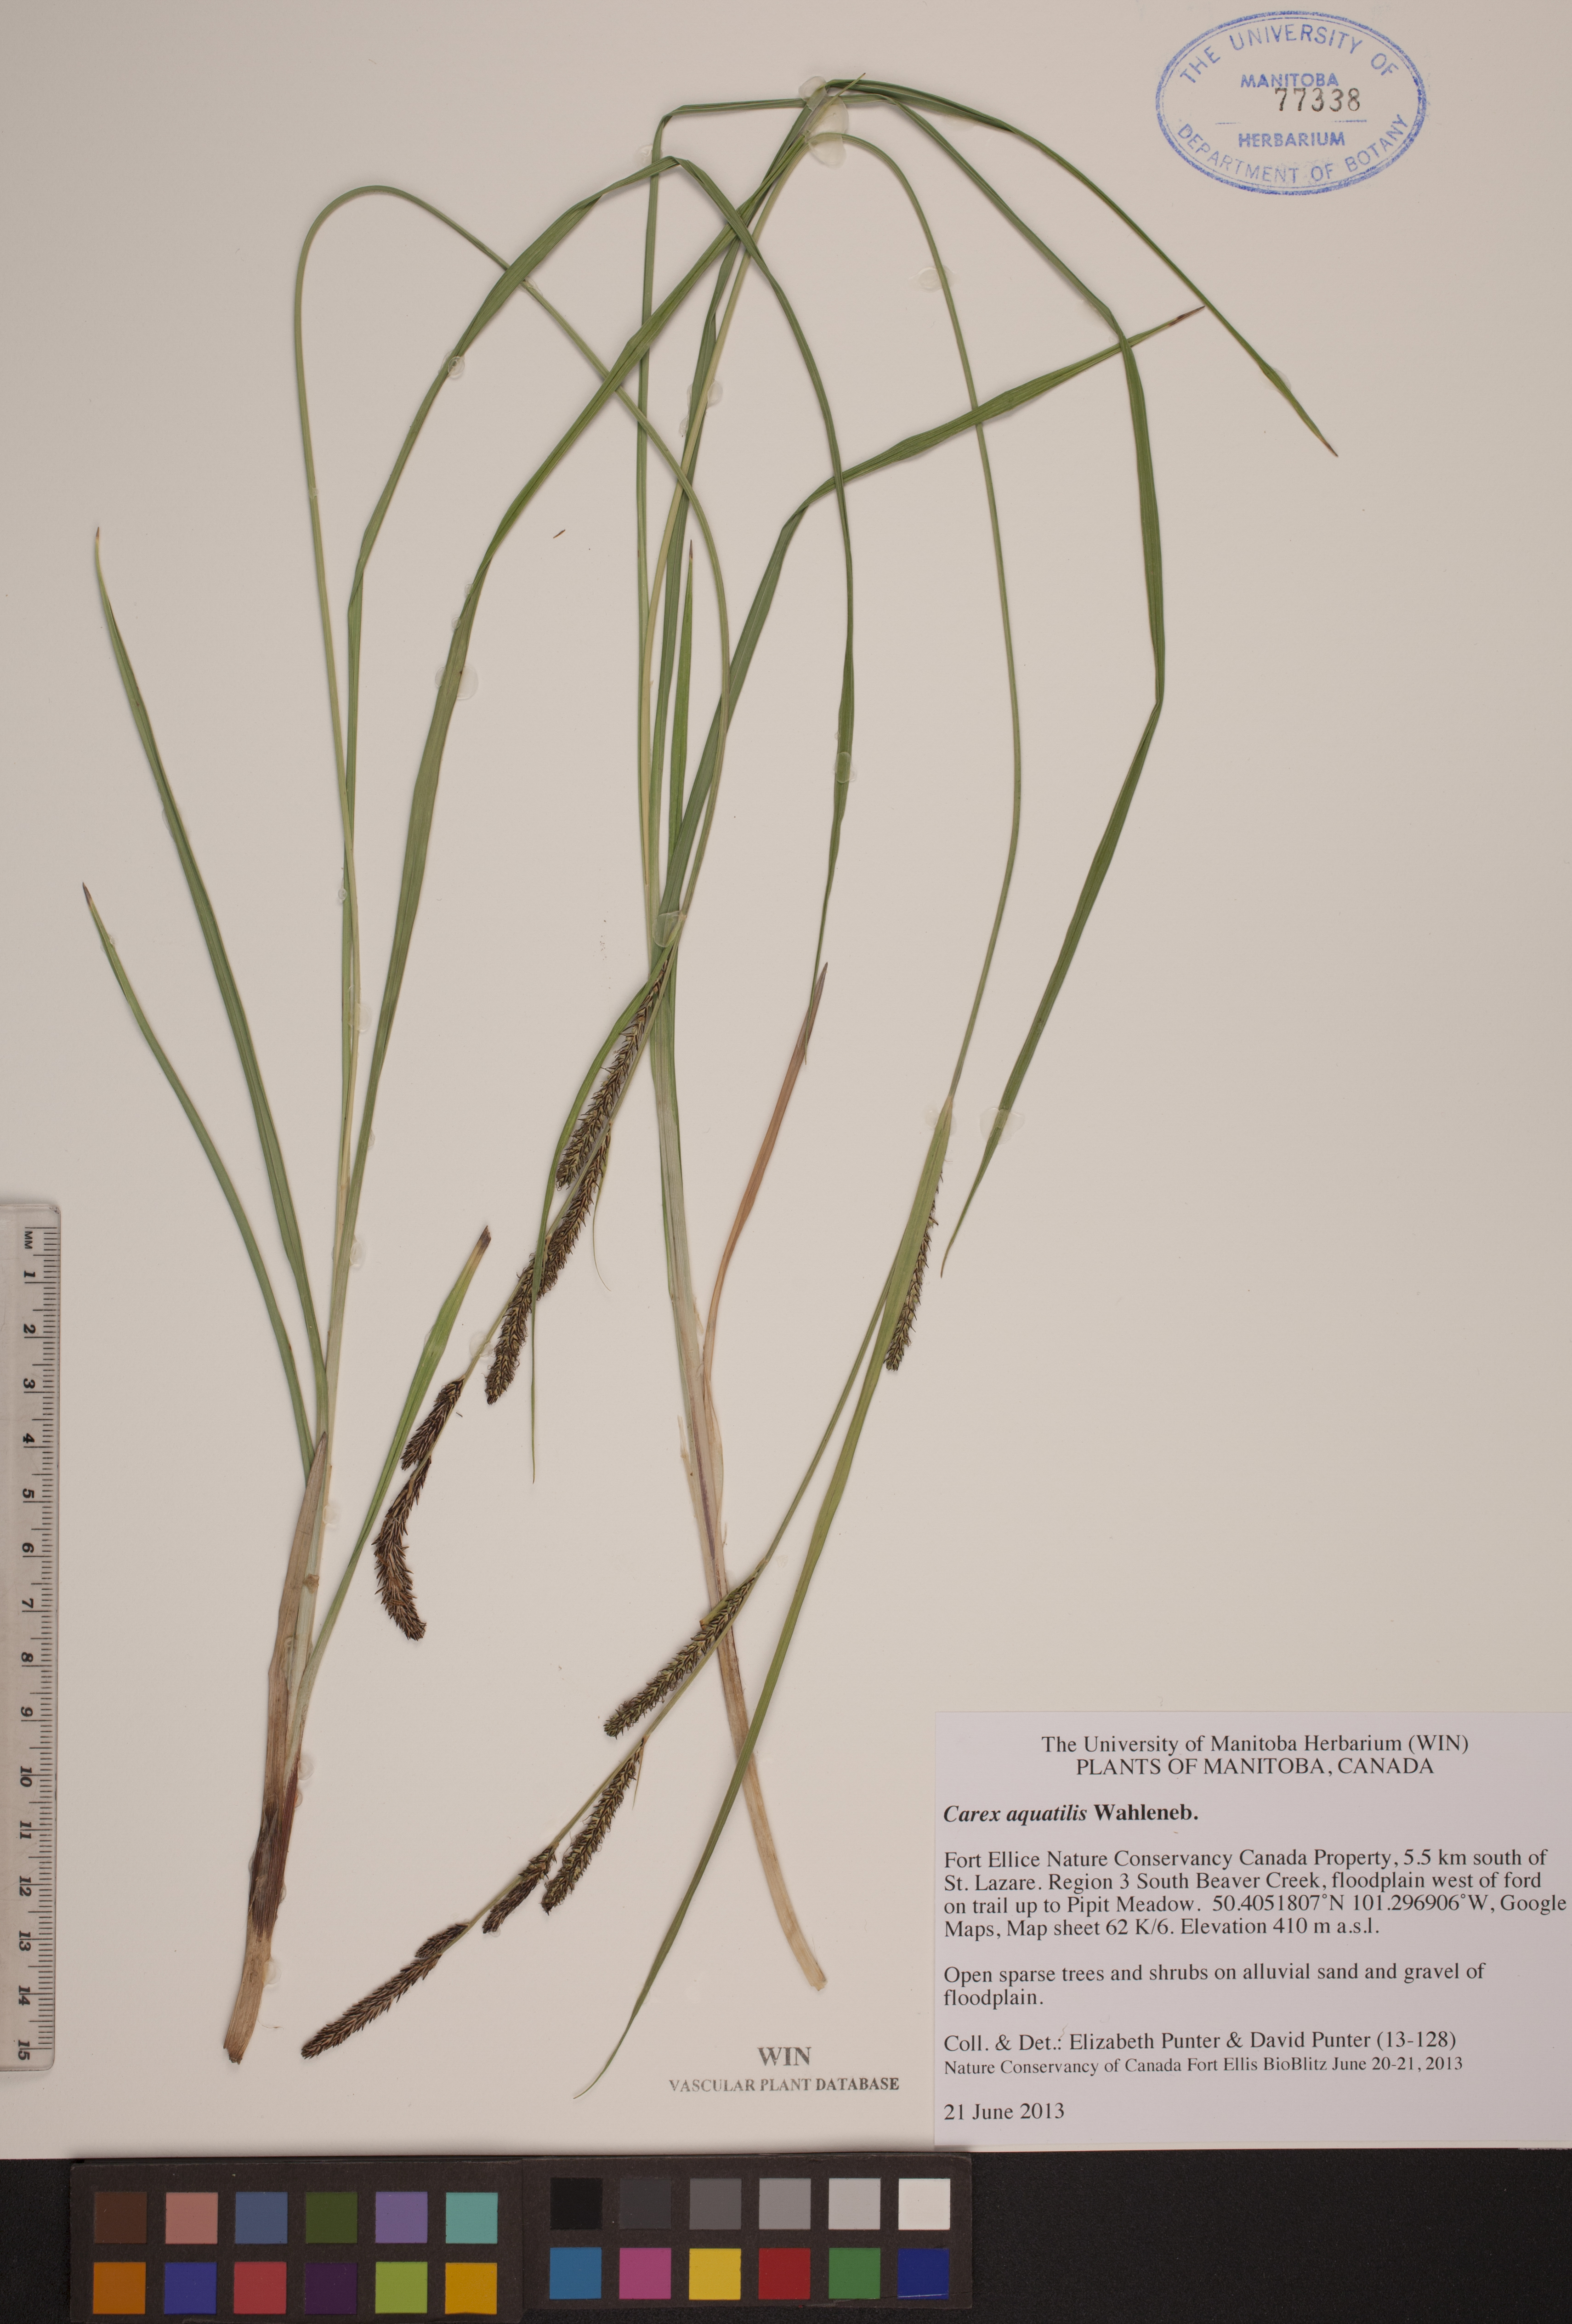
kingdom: Plantae
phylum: Tracheophyta
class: Liliopsida
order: Poales
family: Cyperaceae
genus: Carex
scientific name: Carex aquatilis
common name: Water sedge
